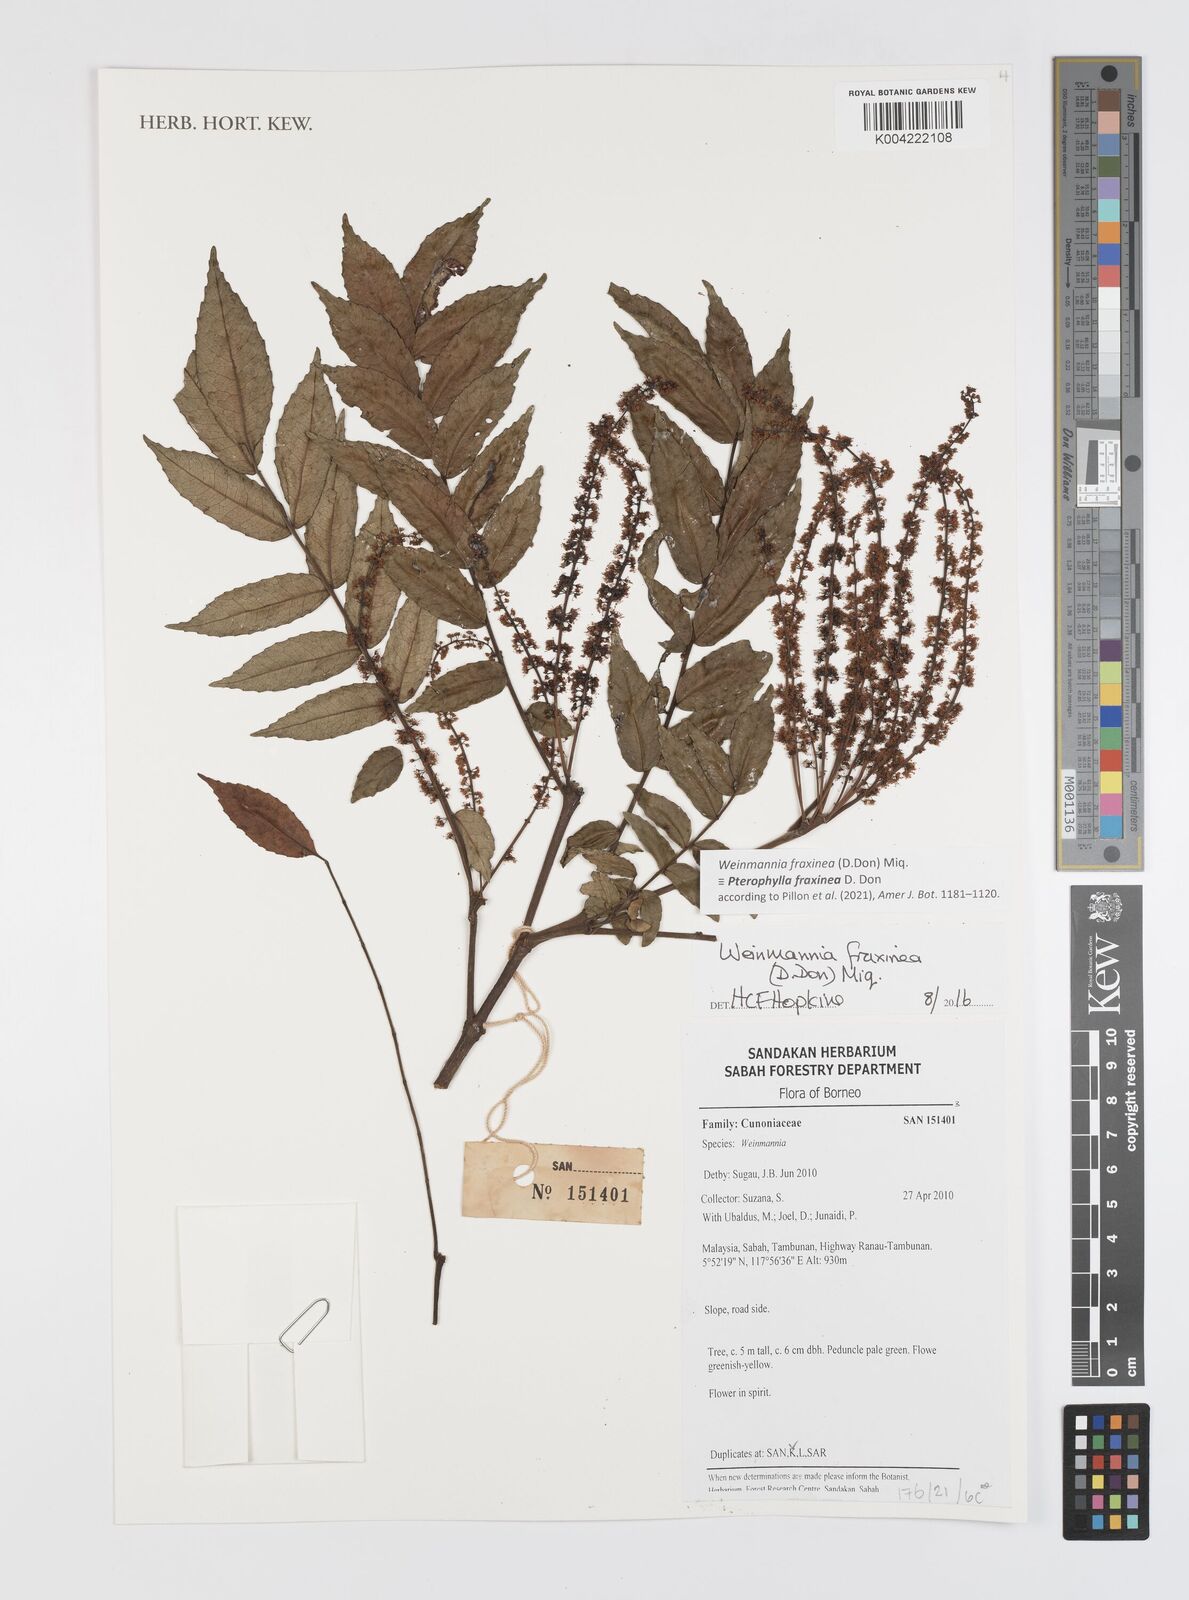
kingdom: Plantae
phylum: Tracheophyta
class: Magnoliopsida
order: Oxalidales
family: Cunoniaceae
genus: Pterophylla
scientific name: Pterophylla fraxinea
